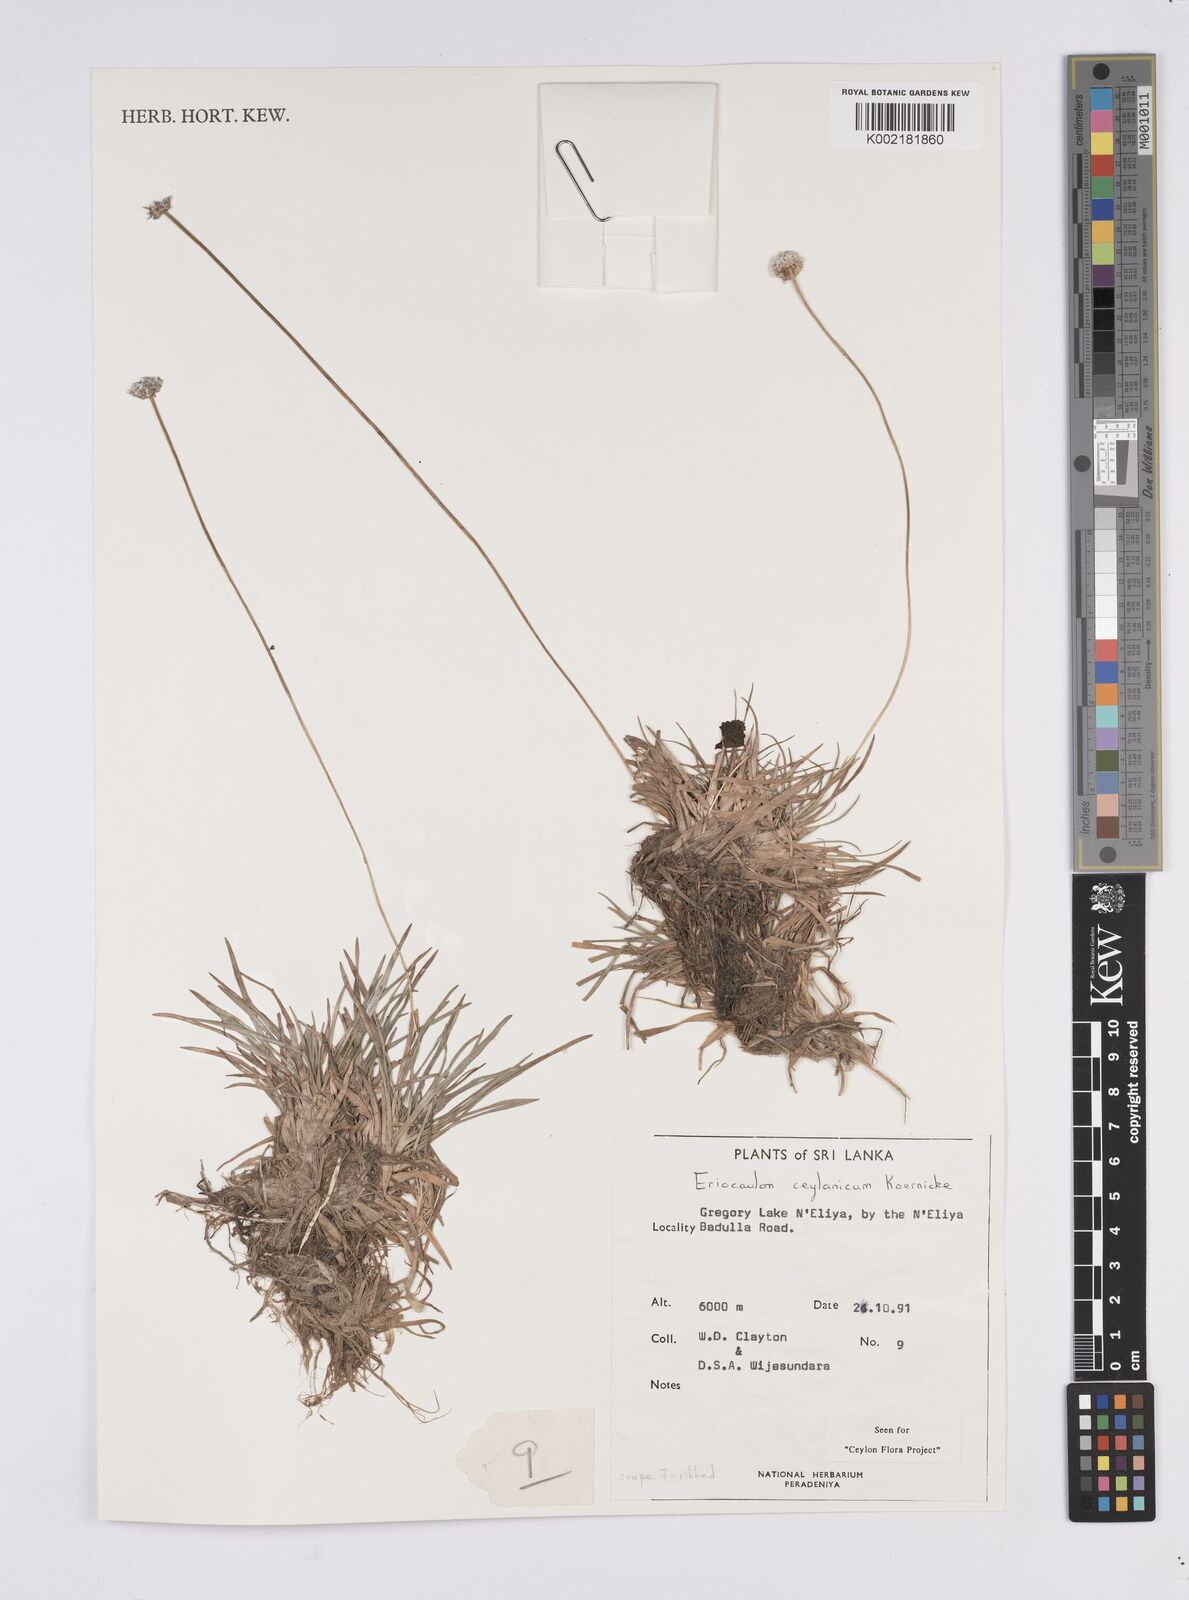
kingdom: Plantae
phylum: Tracheophyta
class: Liliopsida
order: Poales
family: Eriocaulaceae
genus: Eriocaulon
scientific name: Eriocaulon ceylanicum
